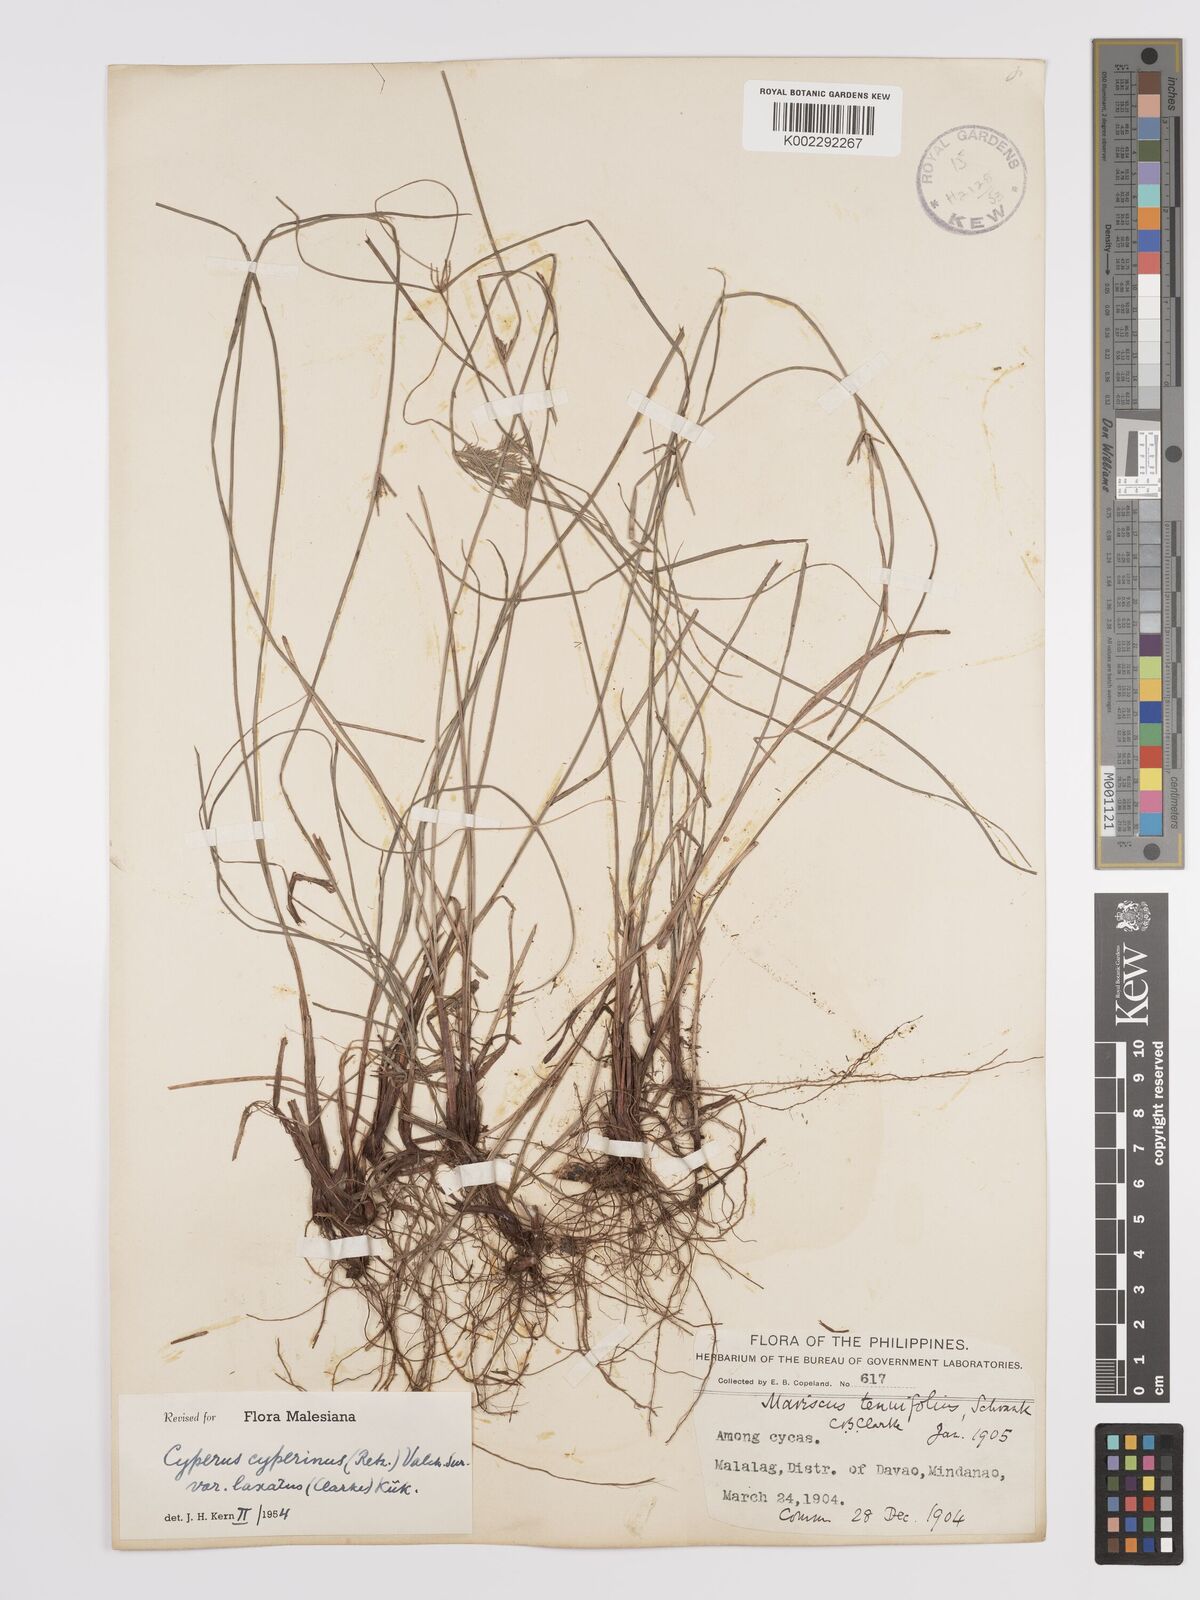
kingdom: Plantae
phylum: Tracheophyta
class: Liliopsida
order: Poales
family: Cyperaceae
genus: Cyperus
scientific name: Cyperus cyperinus
